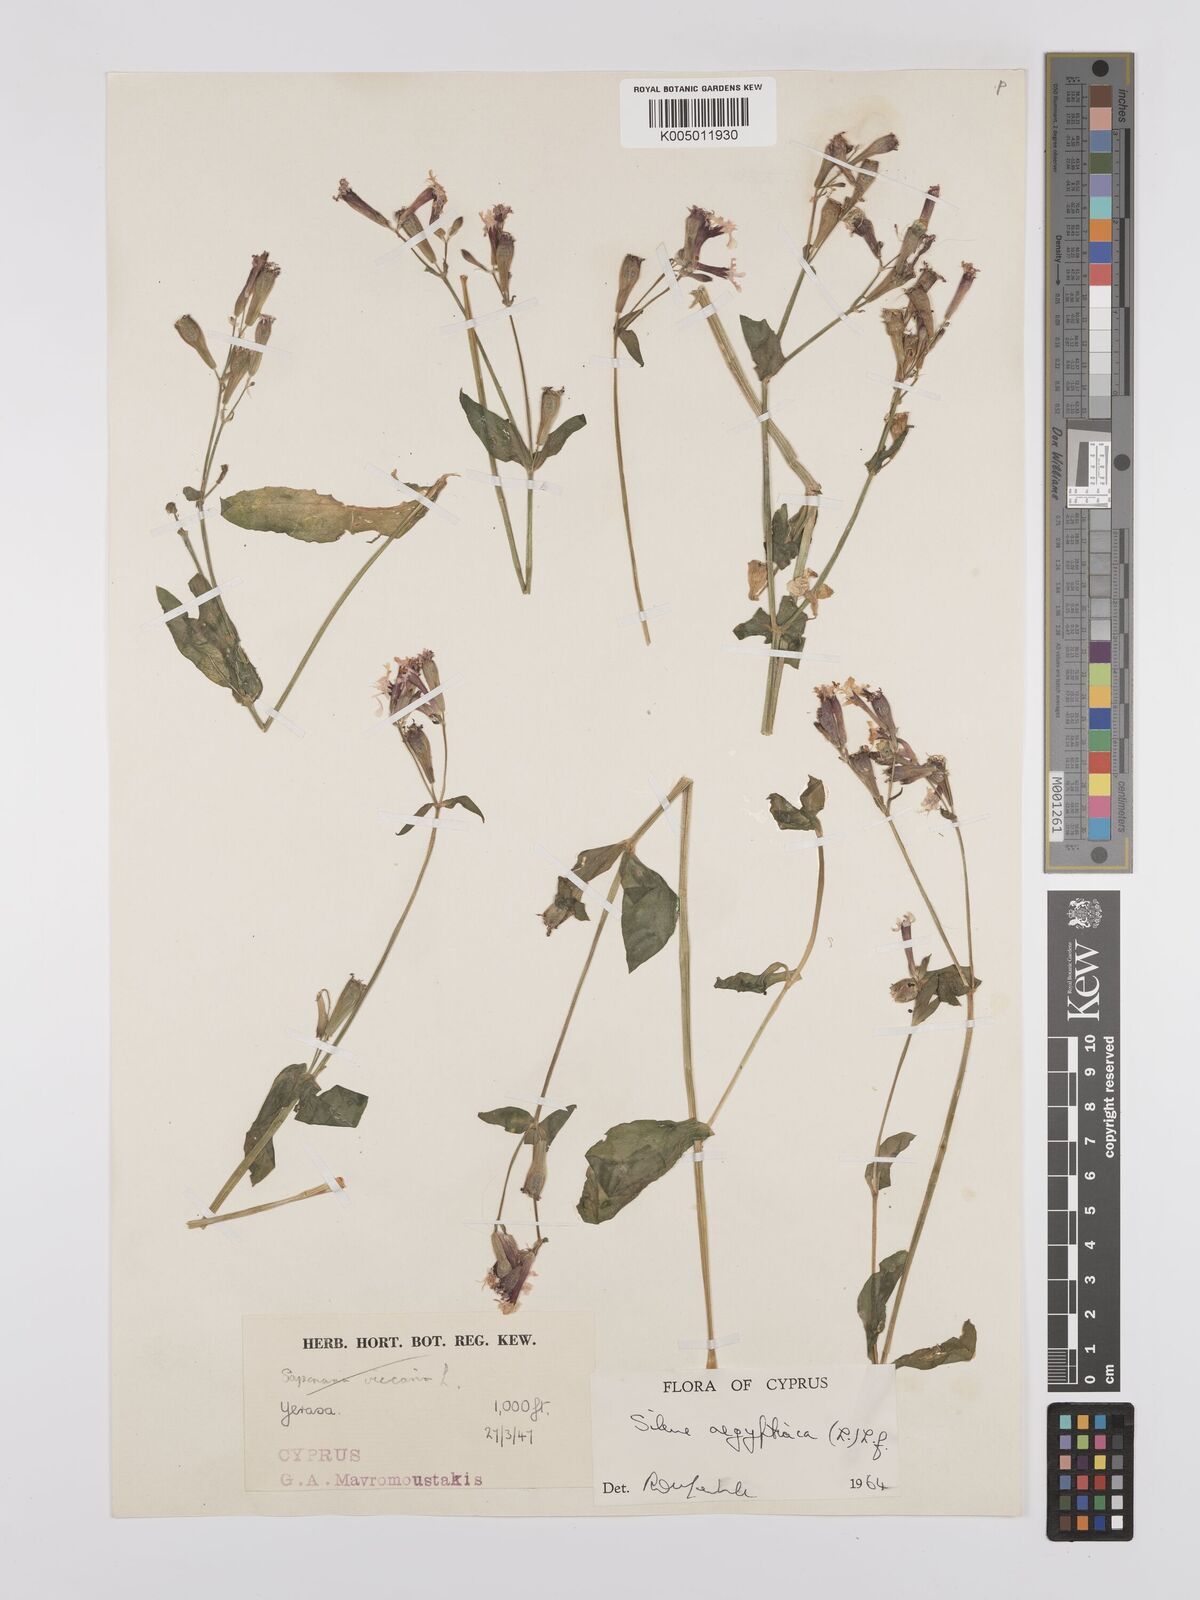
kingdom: Plantae
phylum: Tracheophyta
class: Magnoliopsida
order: Caryophyllales
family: Caryophyllaceae
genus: Silene
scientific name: Silene aegyptiaca
